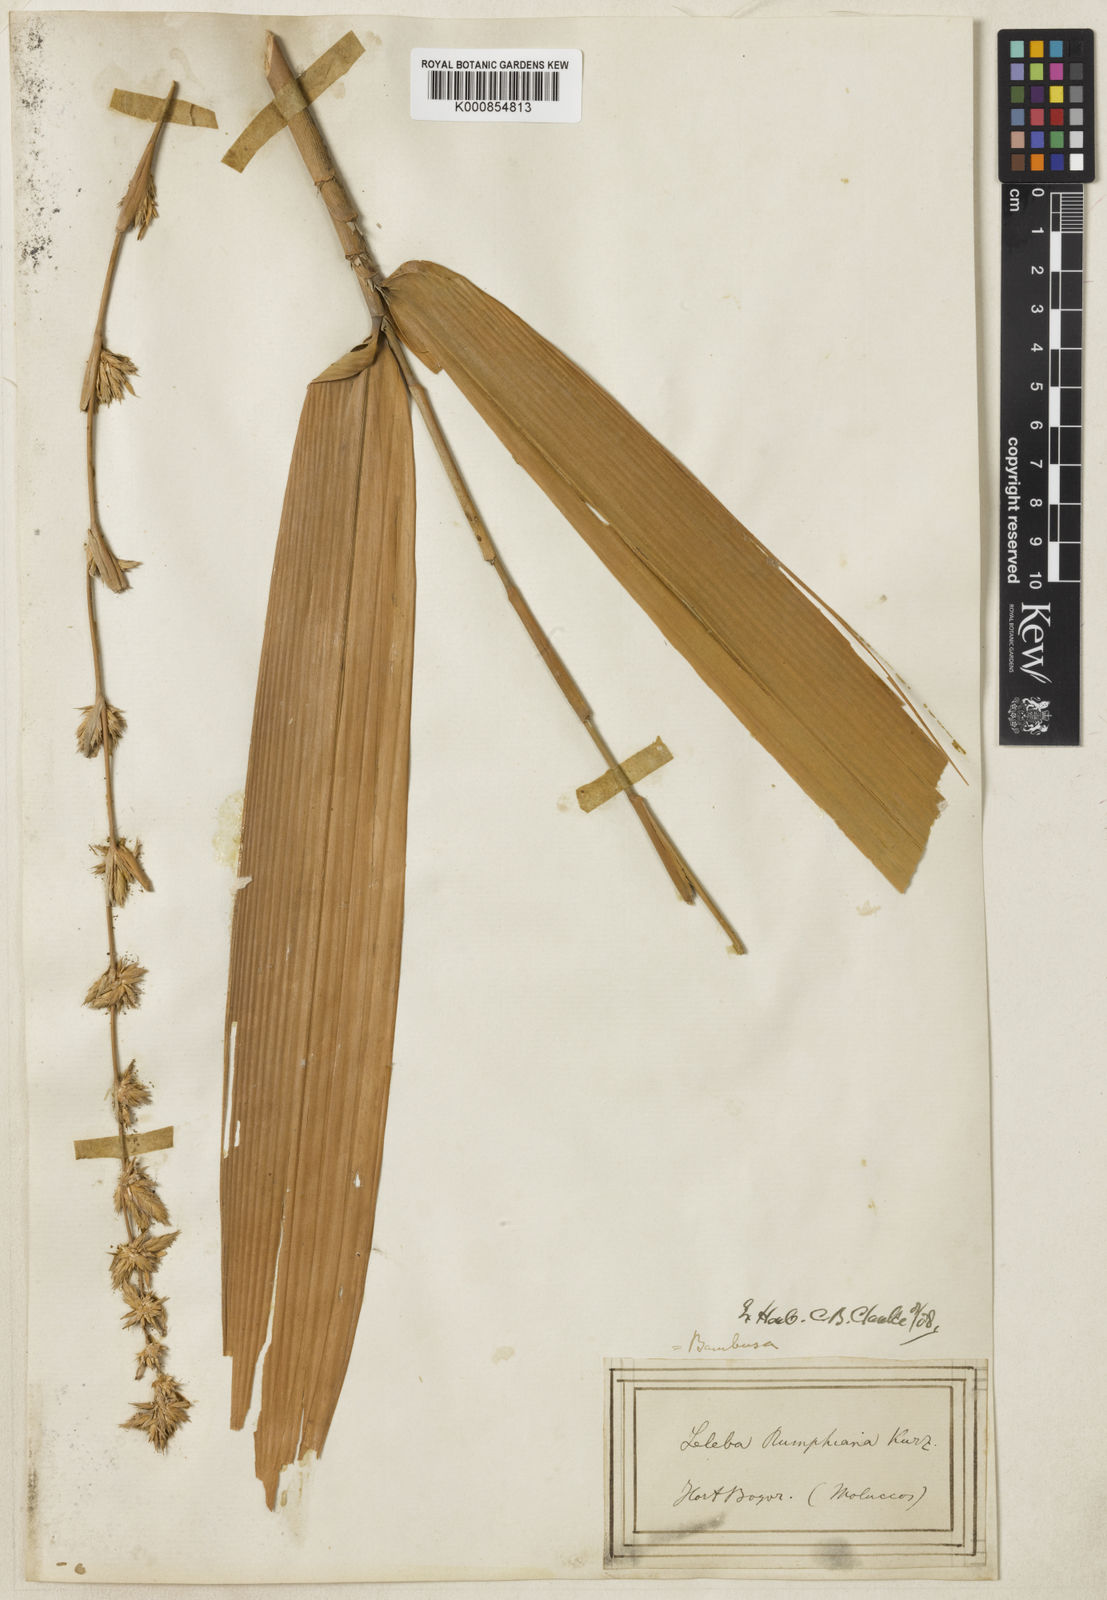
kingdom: Plantae
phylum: Tracheophyta
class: Liliopsida
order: Poales
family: Poaceae
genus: Neololeba
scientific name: Neololeba amahussana
